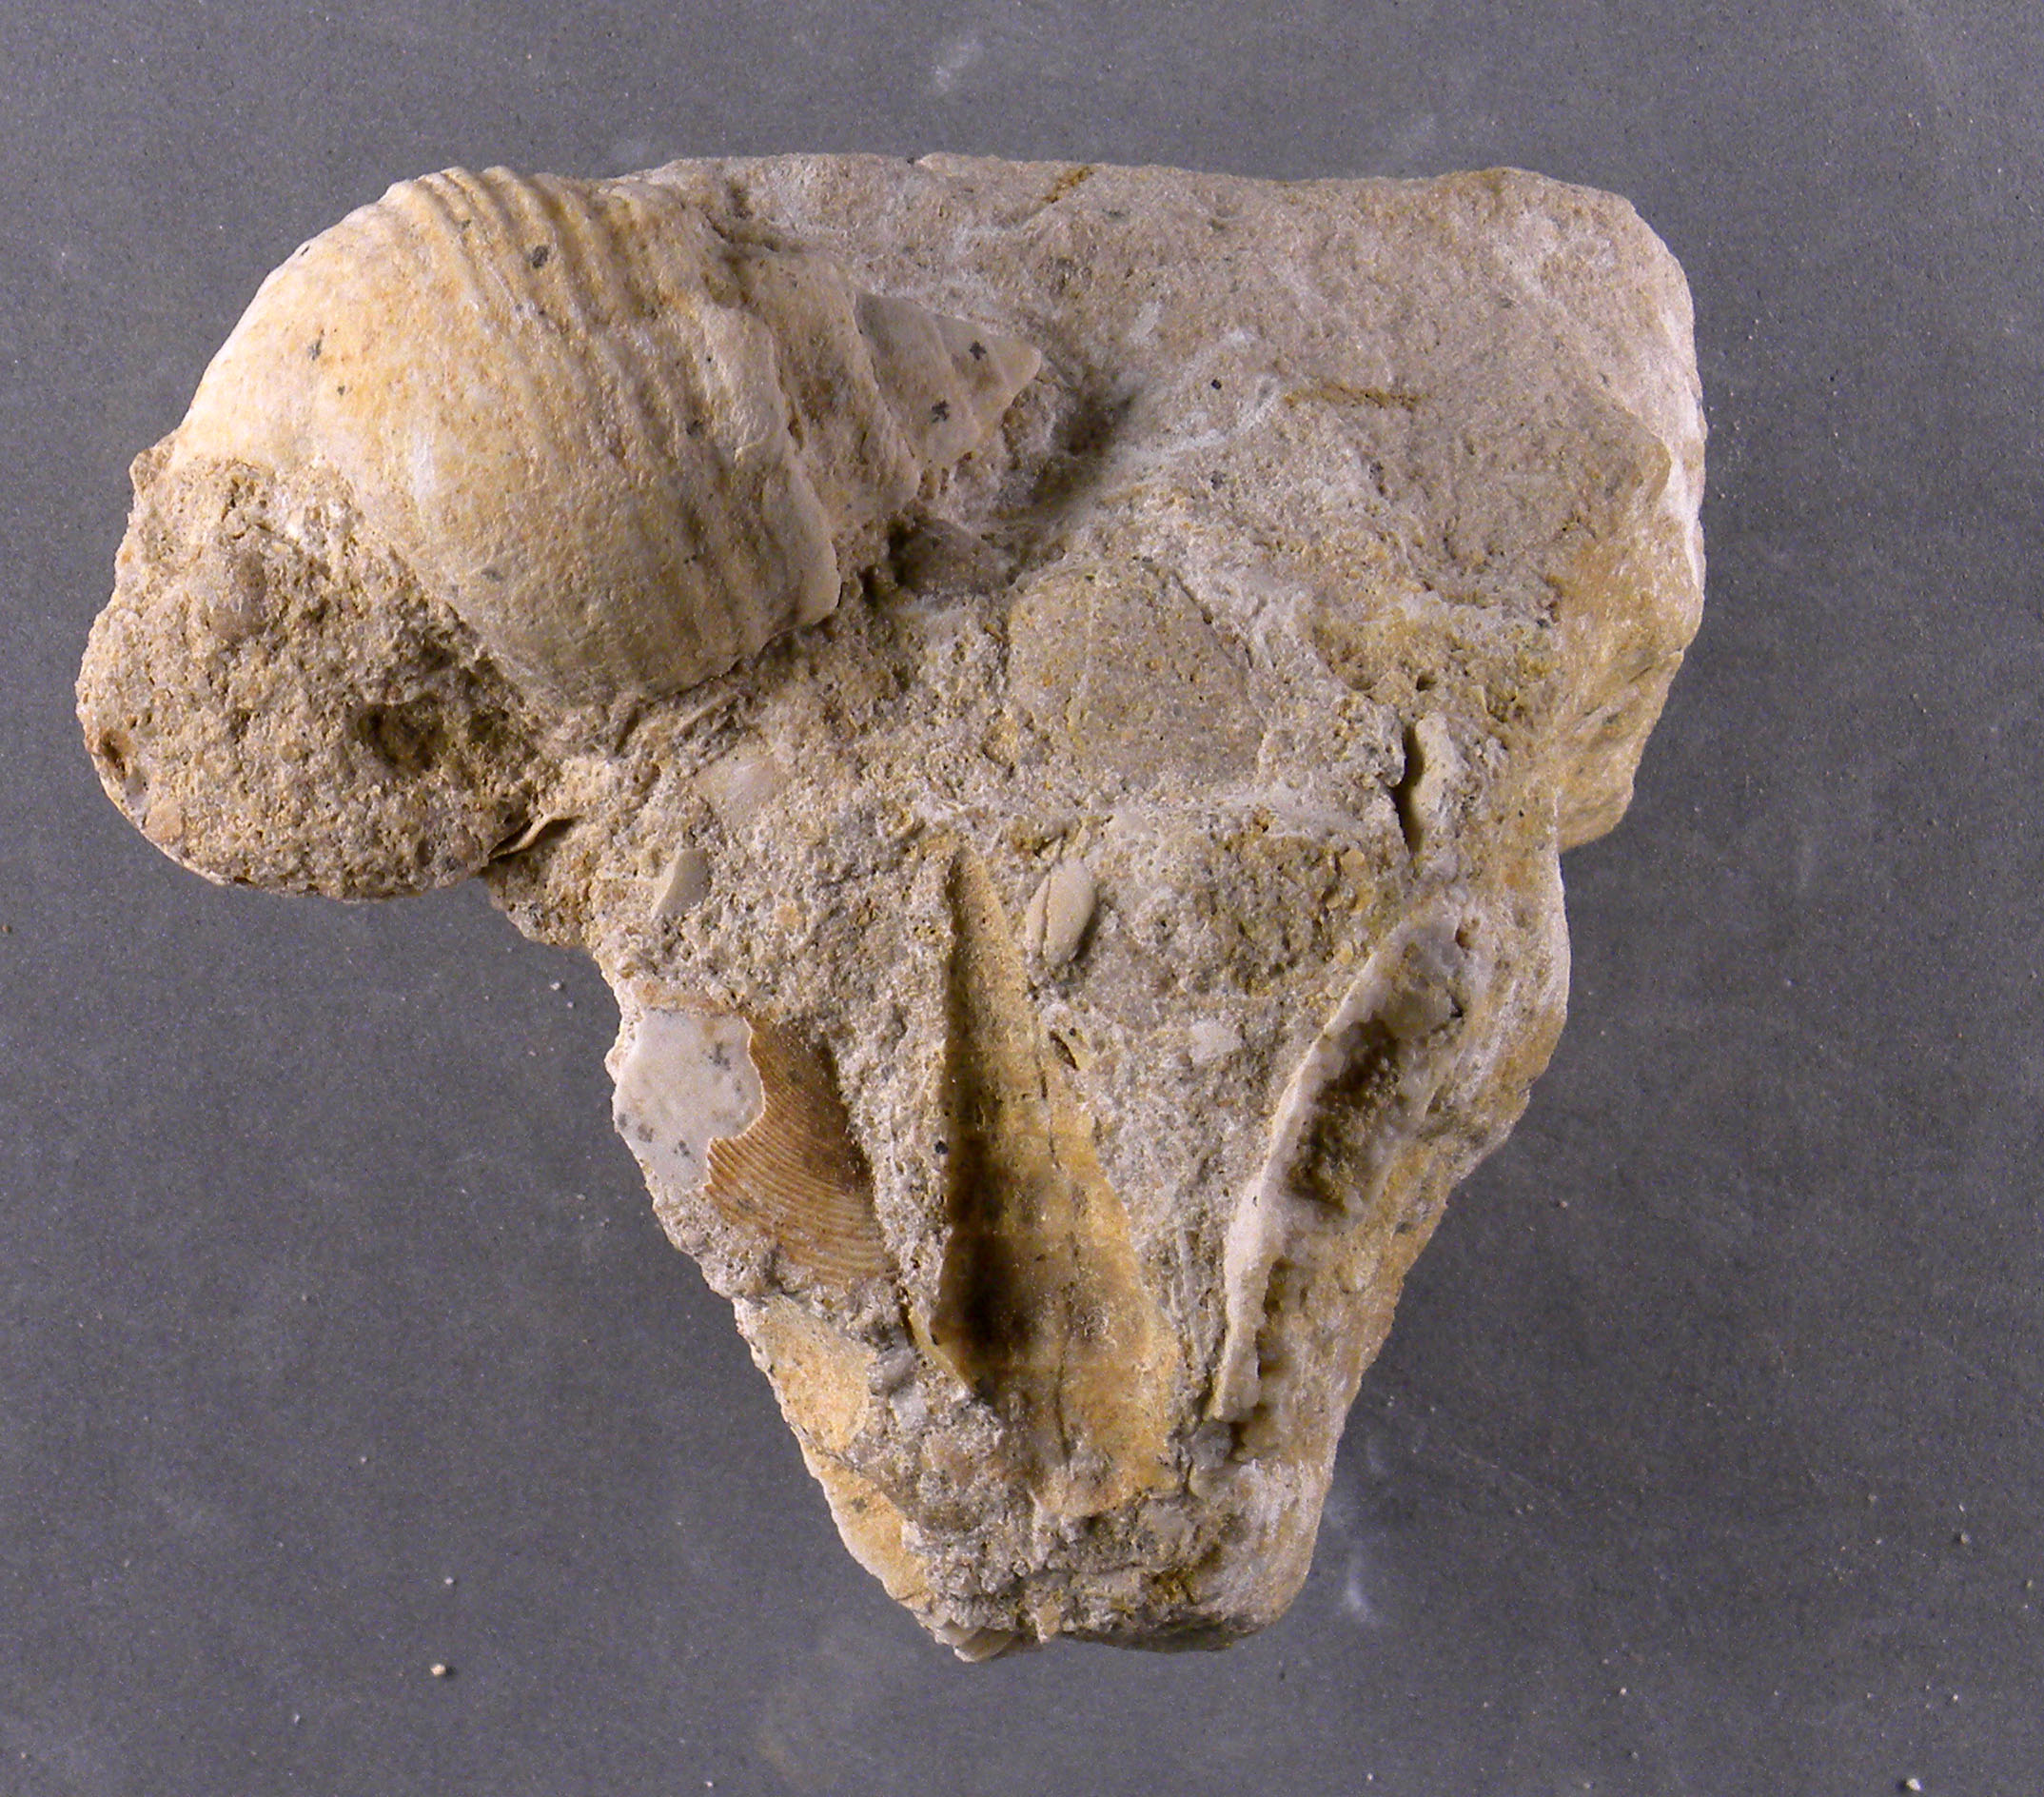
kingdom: Animalia
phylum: Mollusca
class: Gastropoda
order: Neogastropoda
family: Purpurinidae
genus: Microschiza
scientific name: Microschiza
